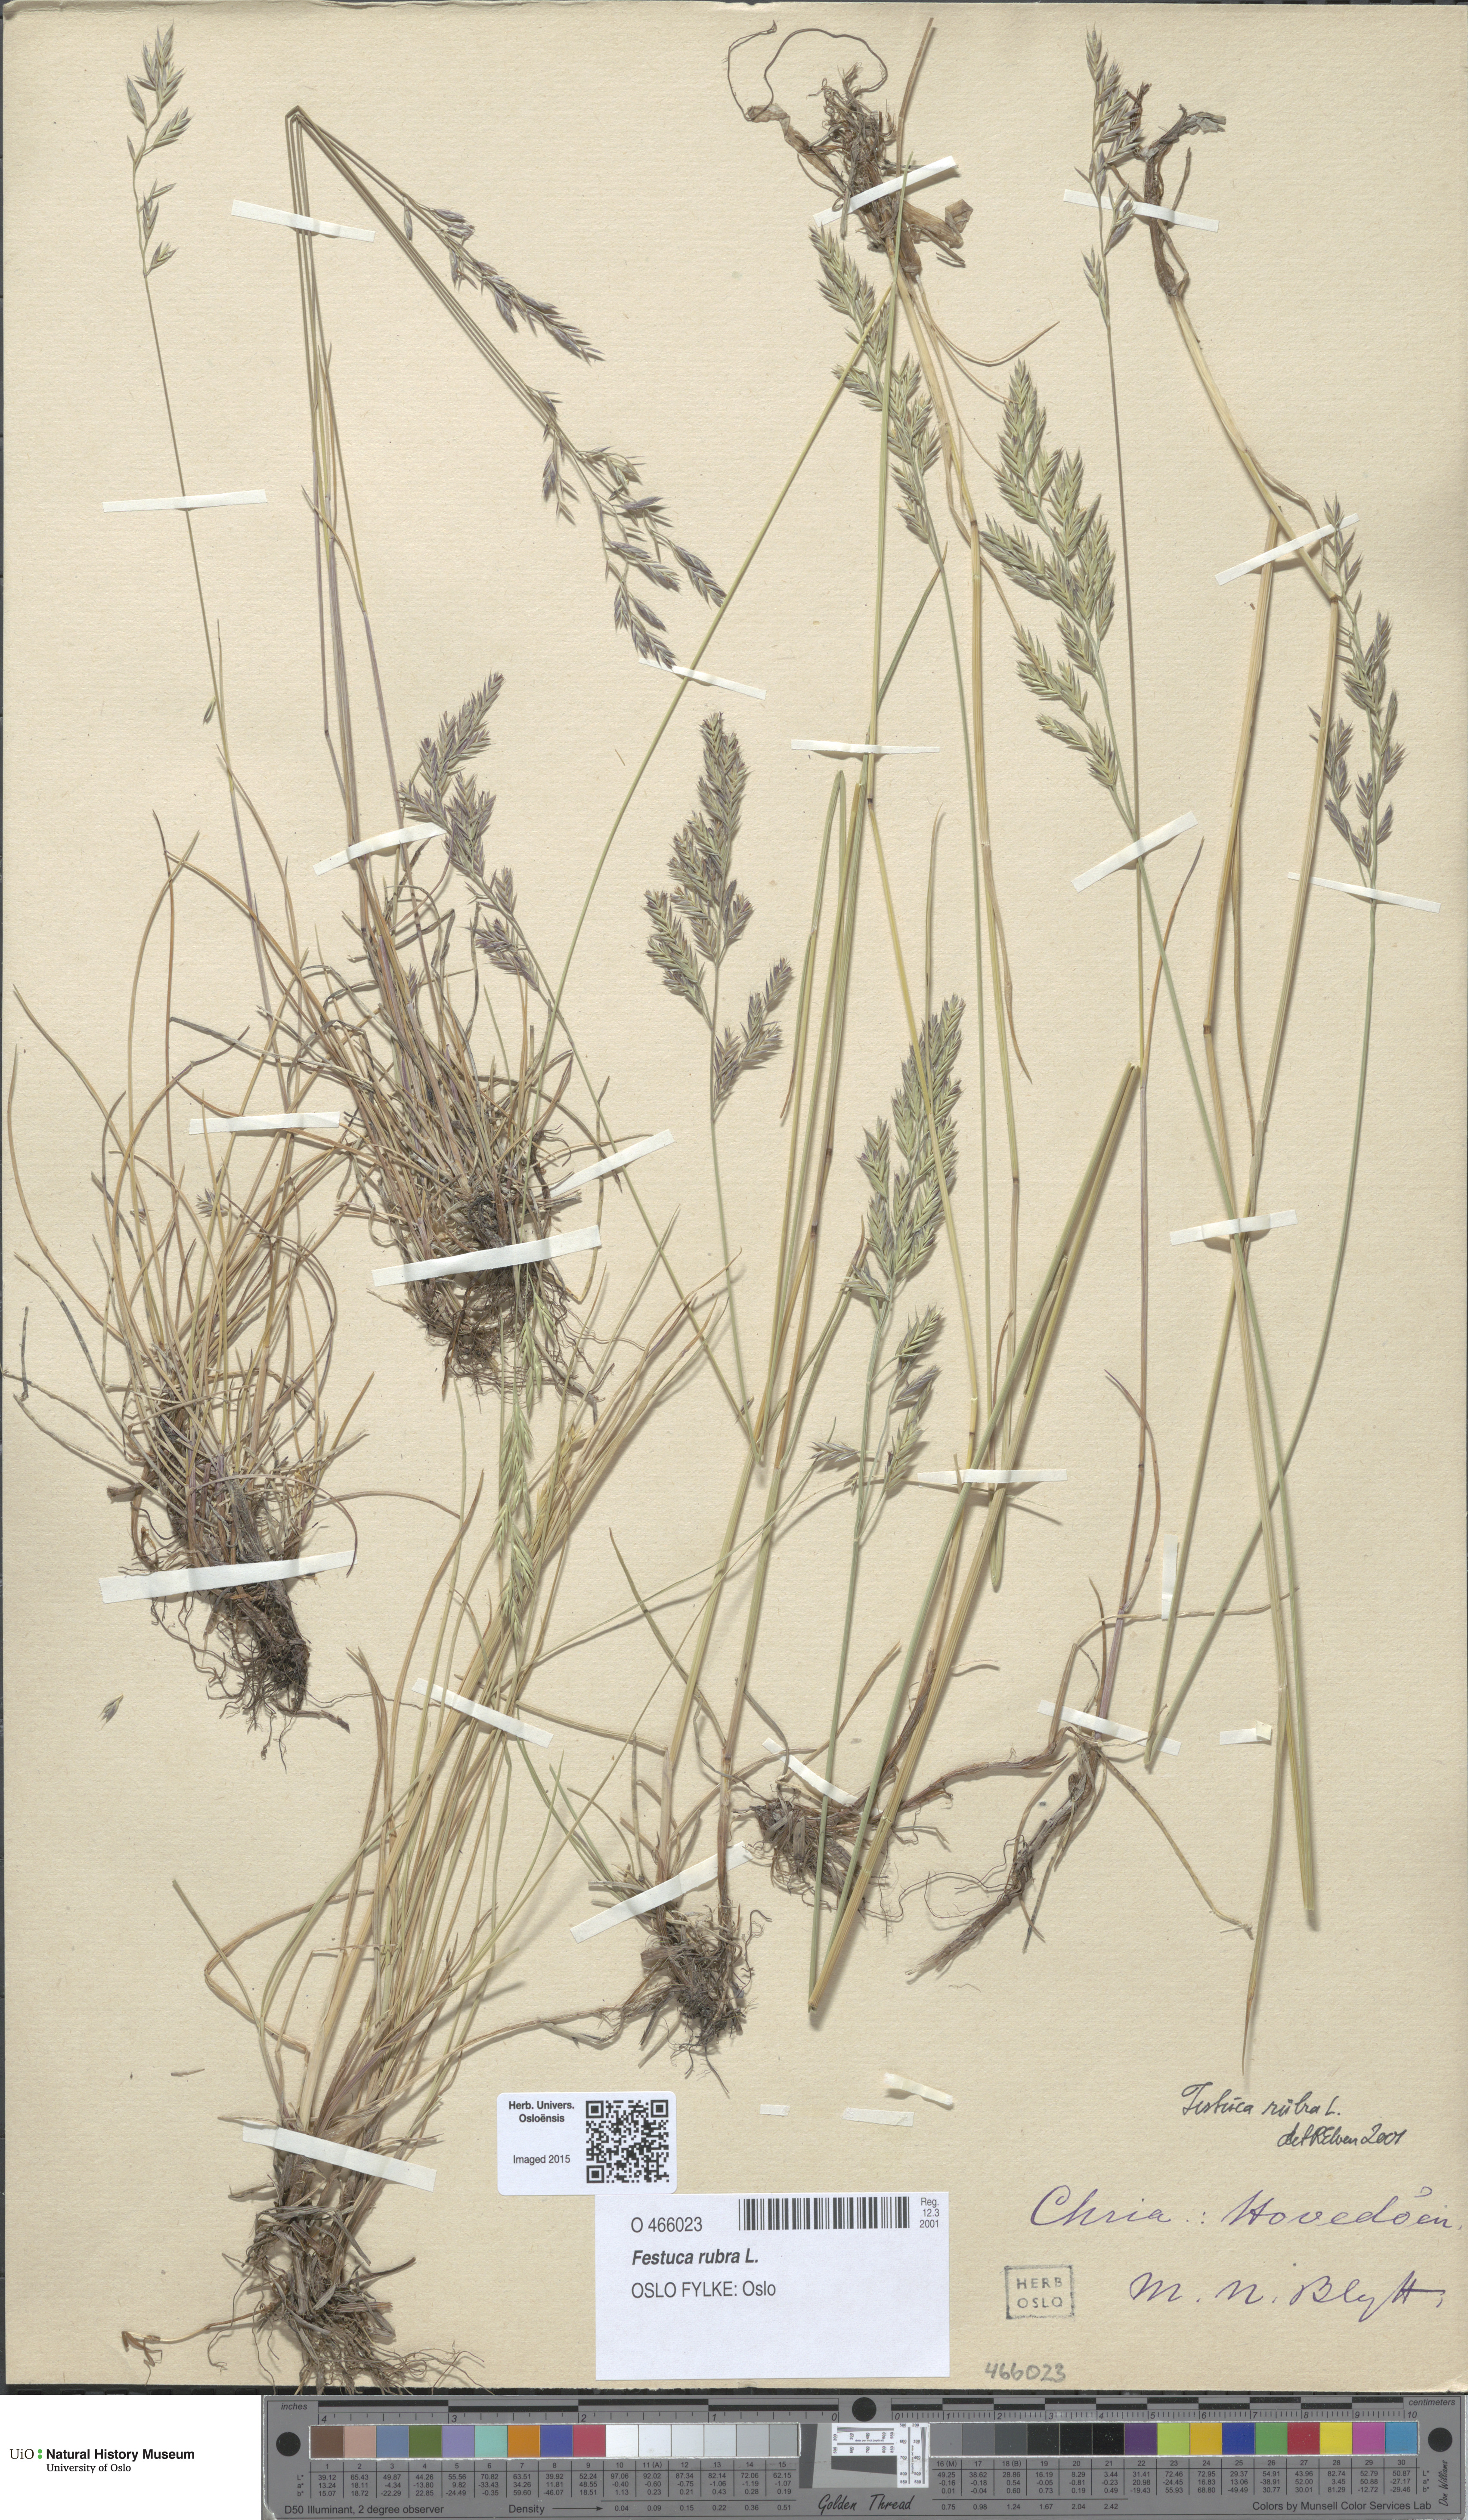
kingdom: Plantae
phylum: Tracheophyta
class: Liliopsida
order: Poales
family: Poaceae
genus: Festuca
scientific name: Festuca rubra
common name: Red fescue
